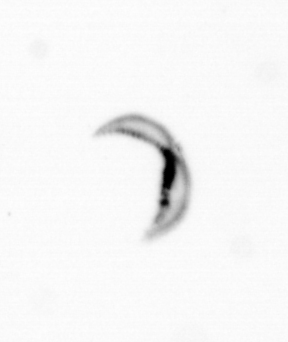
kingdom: Chromista
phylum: Ochrophyta
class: Bacillariophyceae
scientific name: Bacillariophyceae
